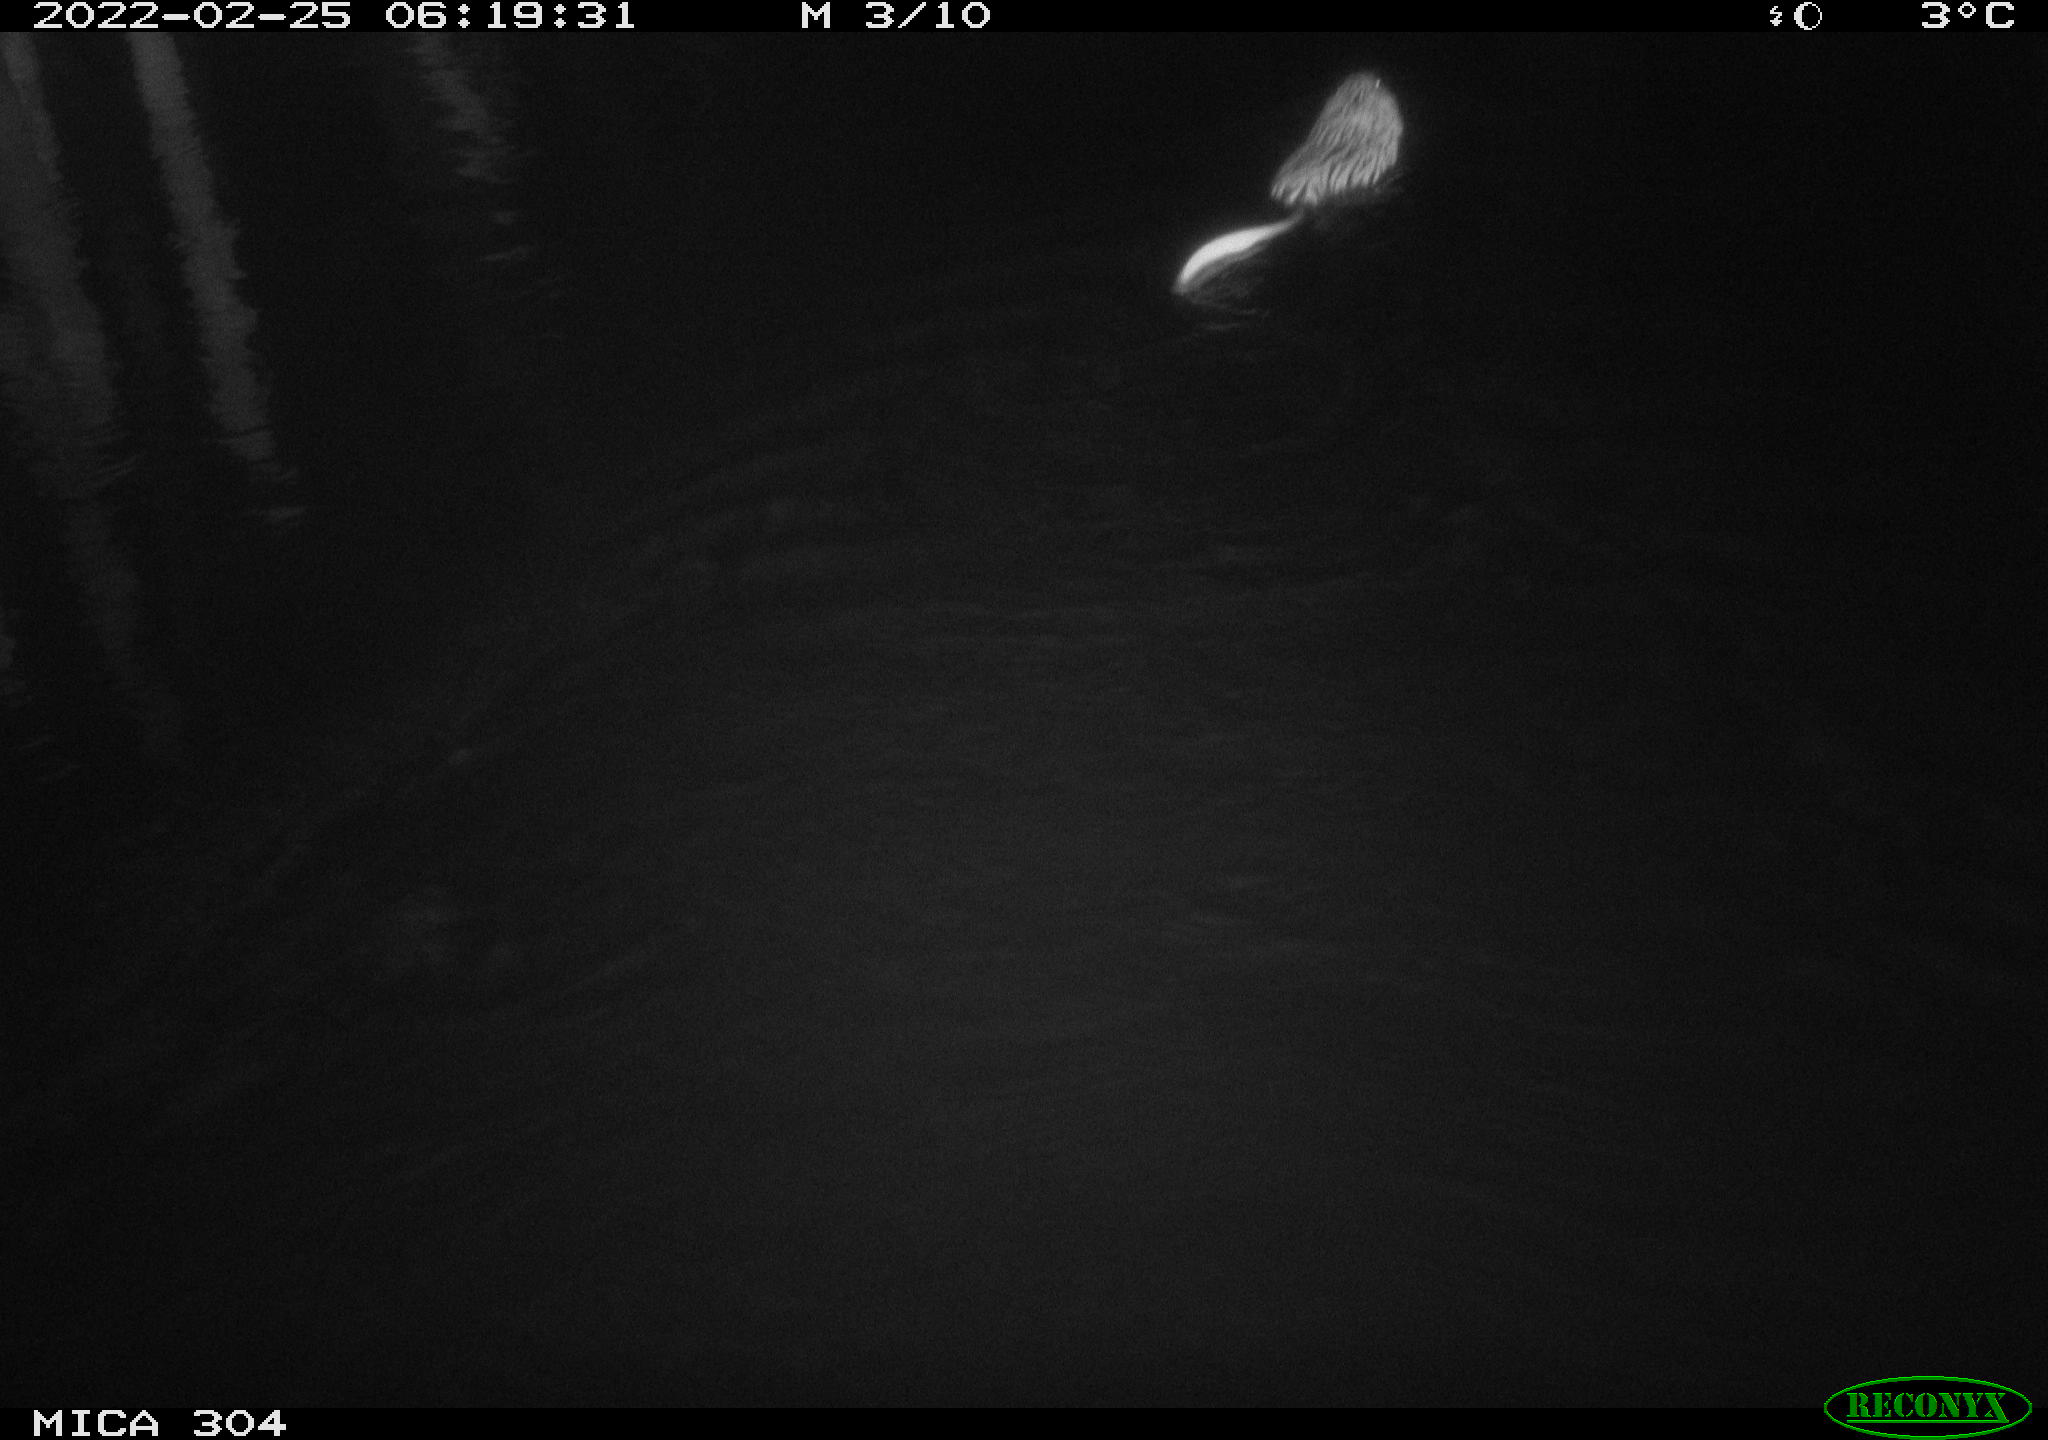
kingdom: Animalia
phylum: Chordata
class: Mammalia
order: Rodentia
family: Cricetidae
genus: Ondatra
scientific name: Ondatra zibethicus
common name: Muskrat
